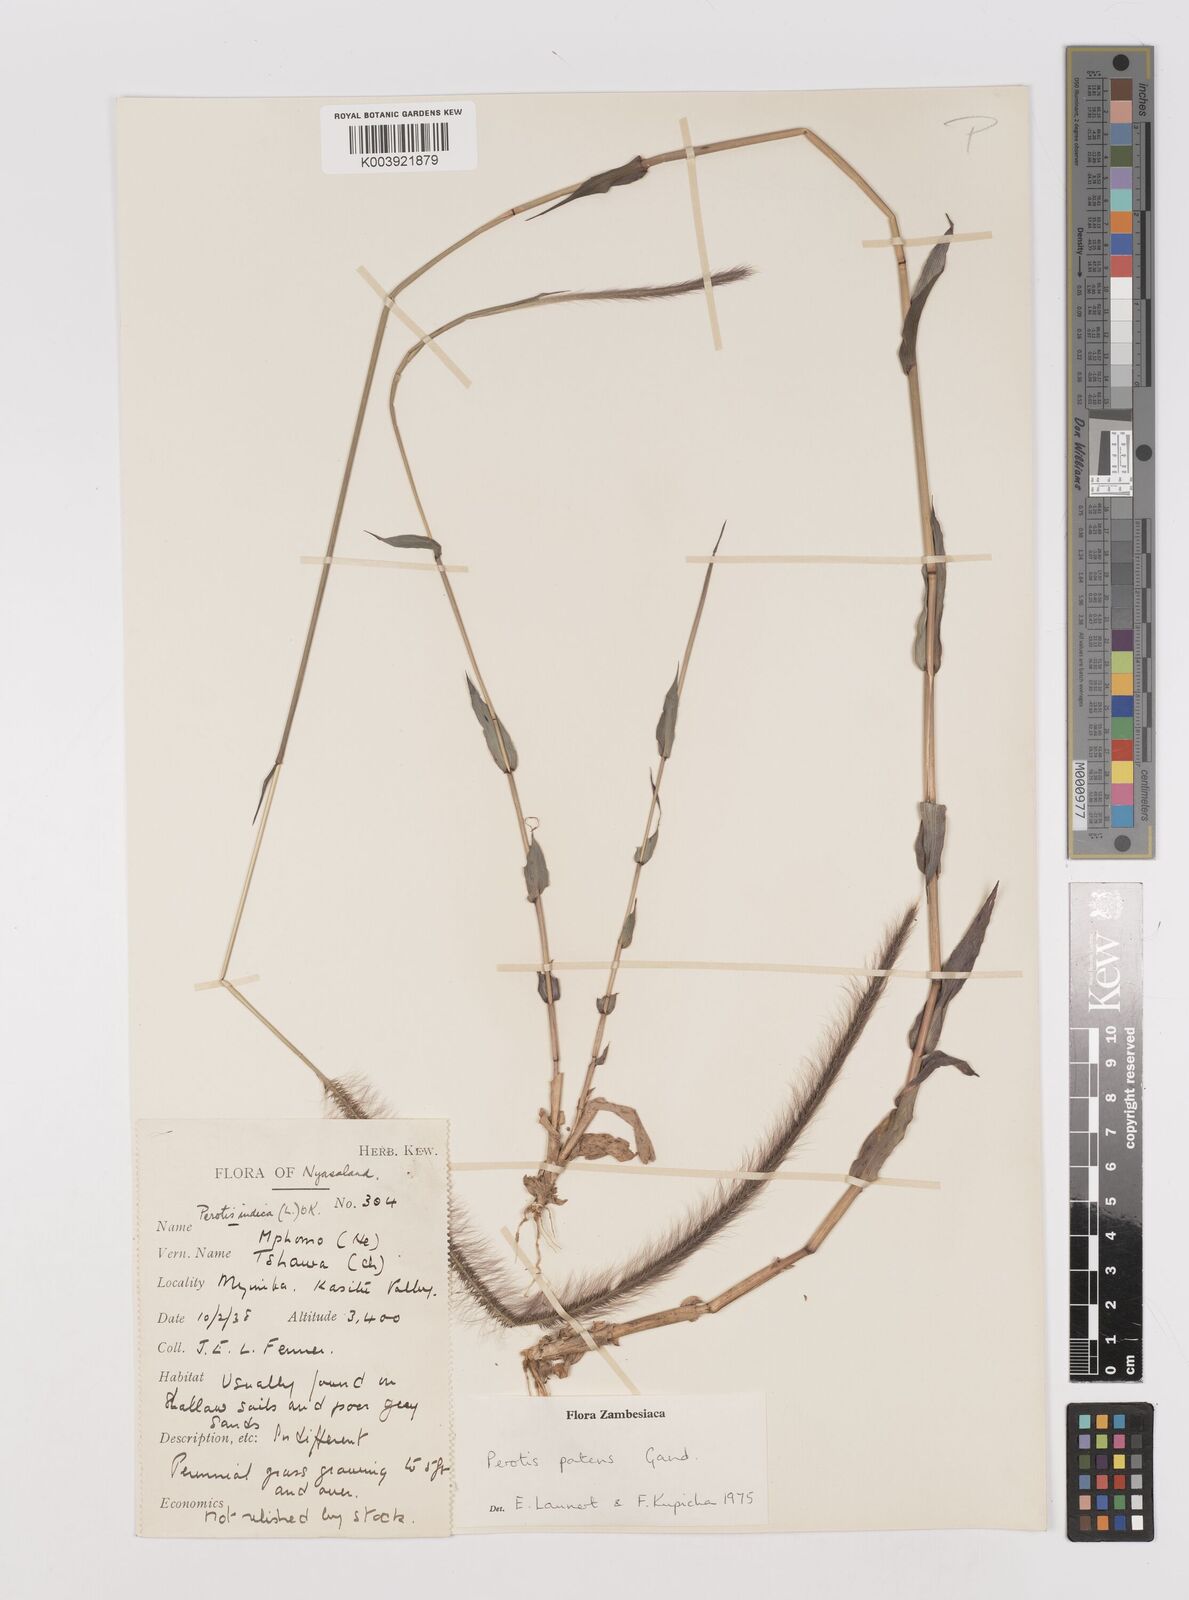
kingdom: Plantae
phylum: Tracheophyta
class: Liliopsida
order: Poales
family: Poaceae
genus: Perotis
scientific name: Perotis patens
